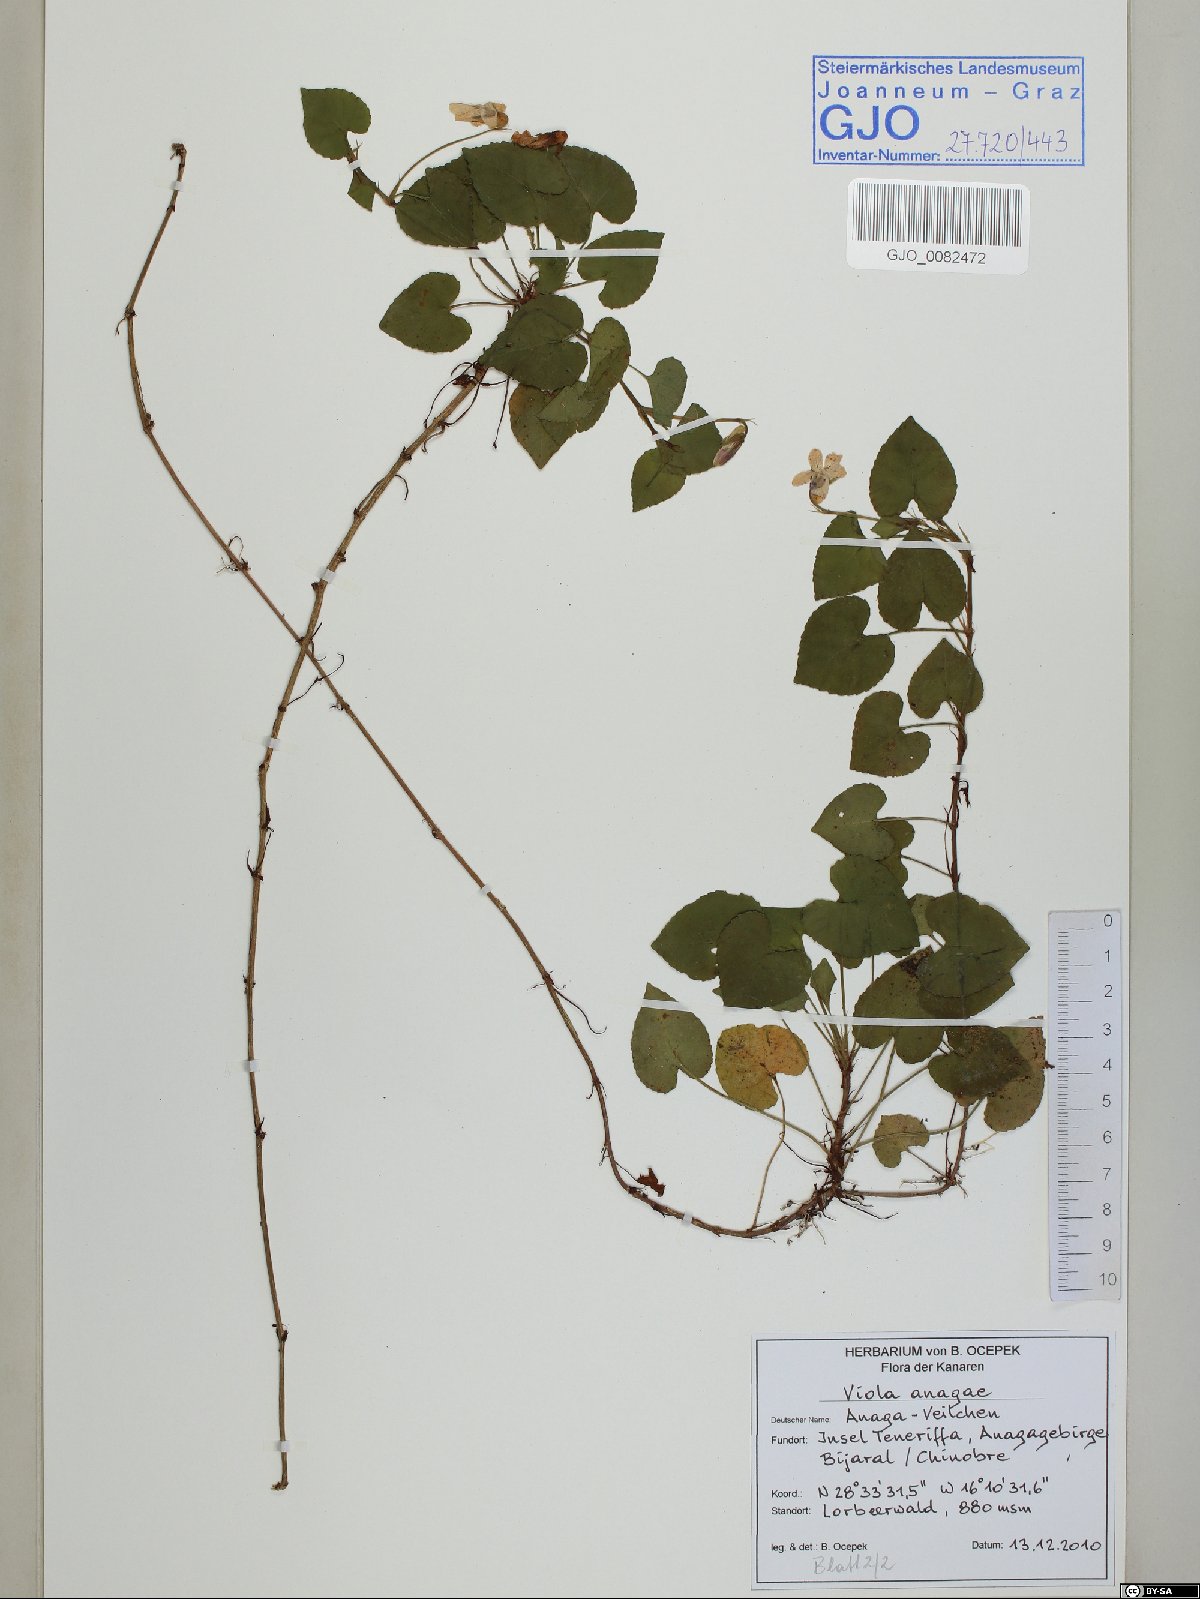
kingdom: Plantae
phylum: Tracheophyta
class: Magnoliopsida
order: Malpighiales
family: Violaceae
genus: Viola
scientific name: Viola anagae
